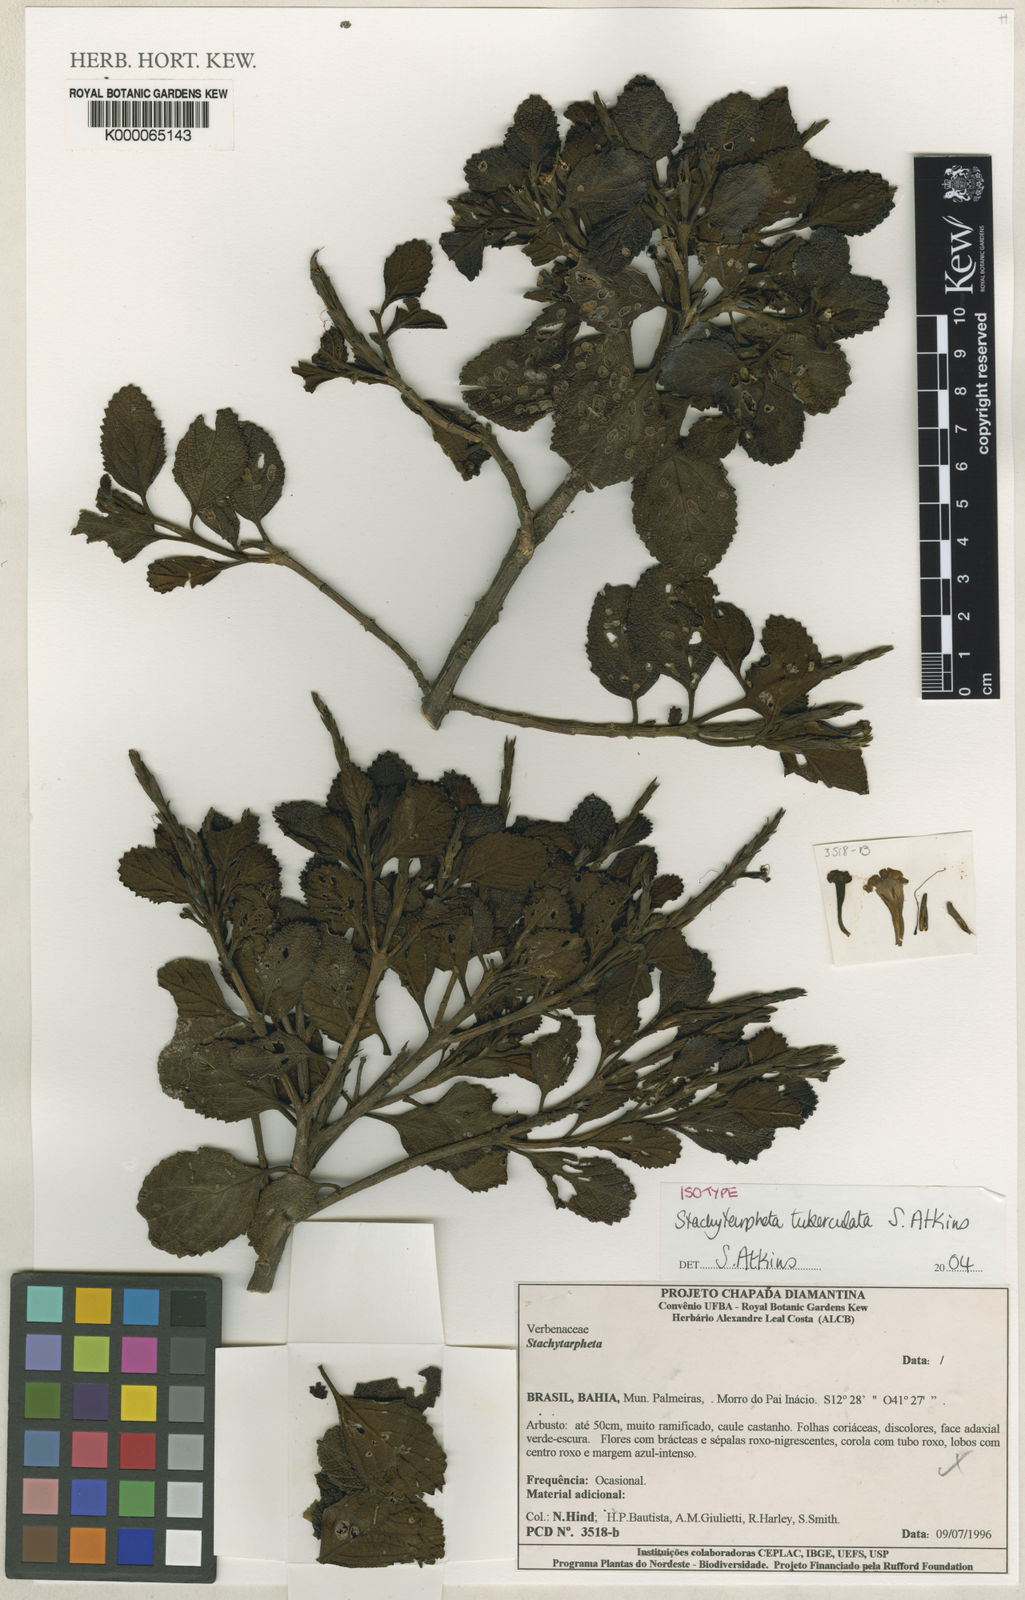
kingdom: Plantae
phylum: Tracheophyta
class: Magnoliopsida
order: Lamiales
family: Verbenaceae
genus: Stachytarpheta
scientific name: Stachytarpheta tuberculata
